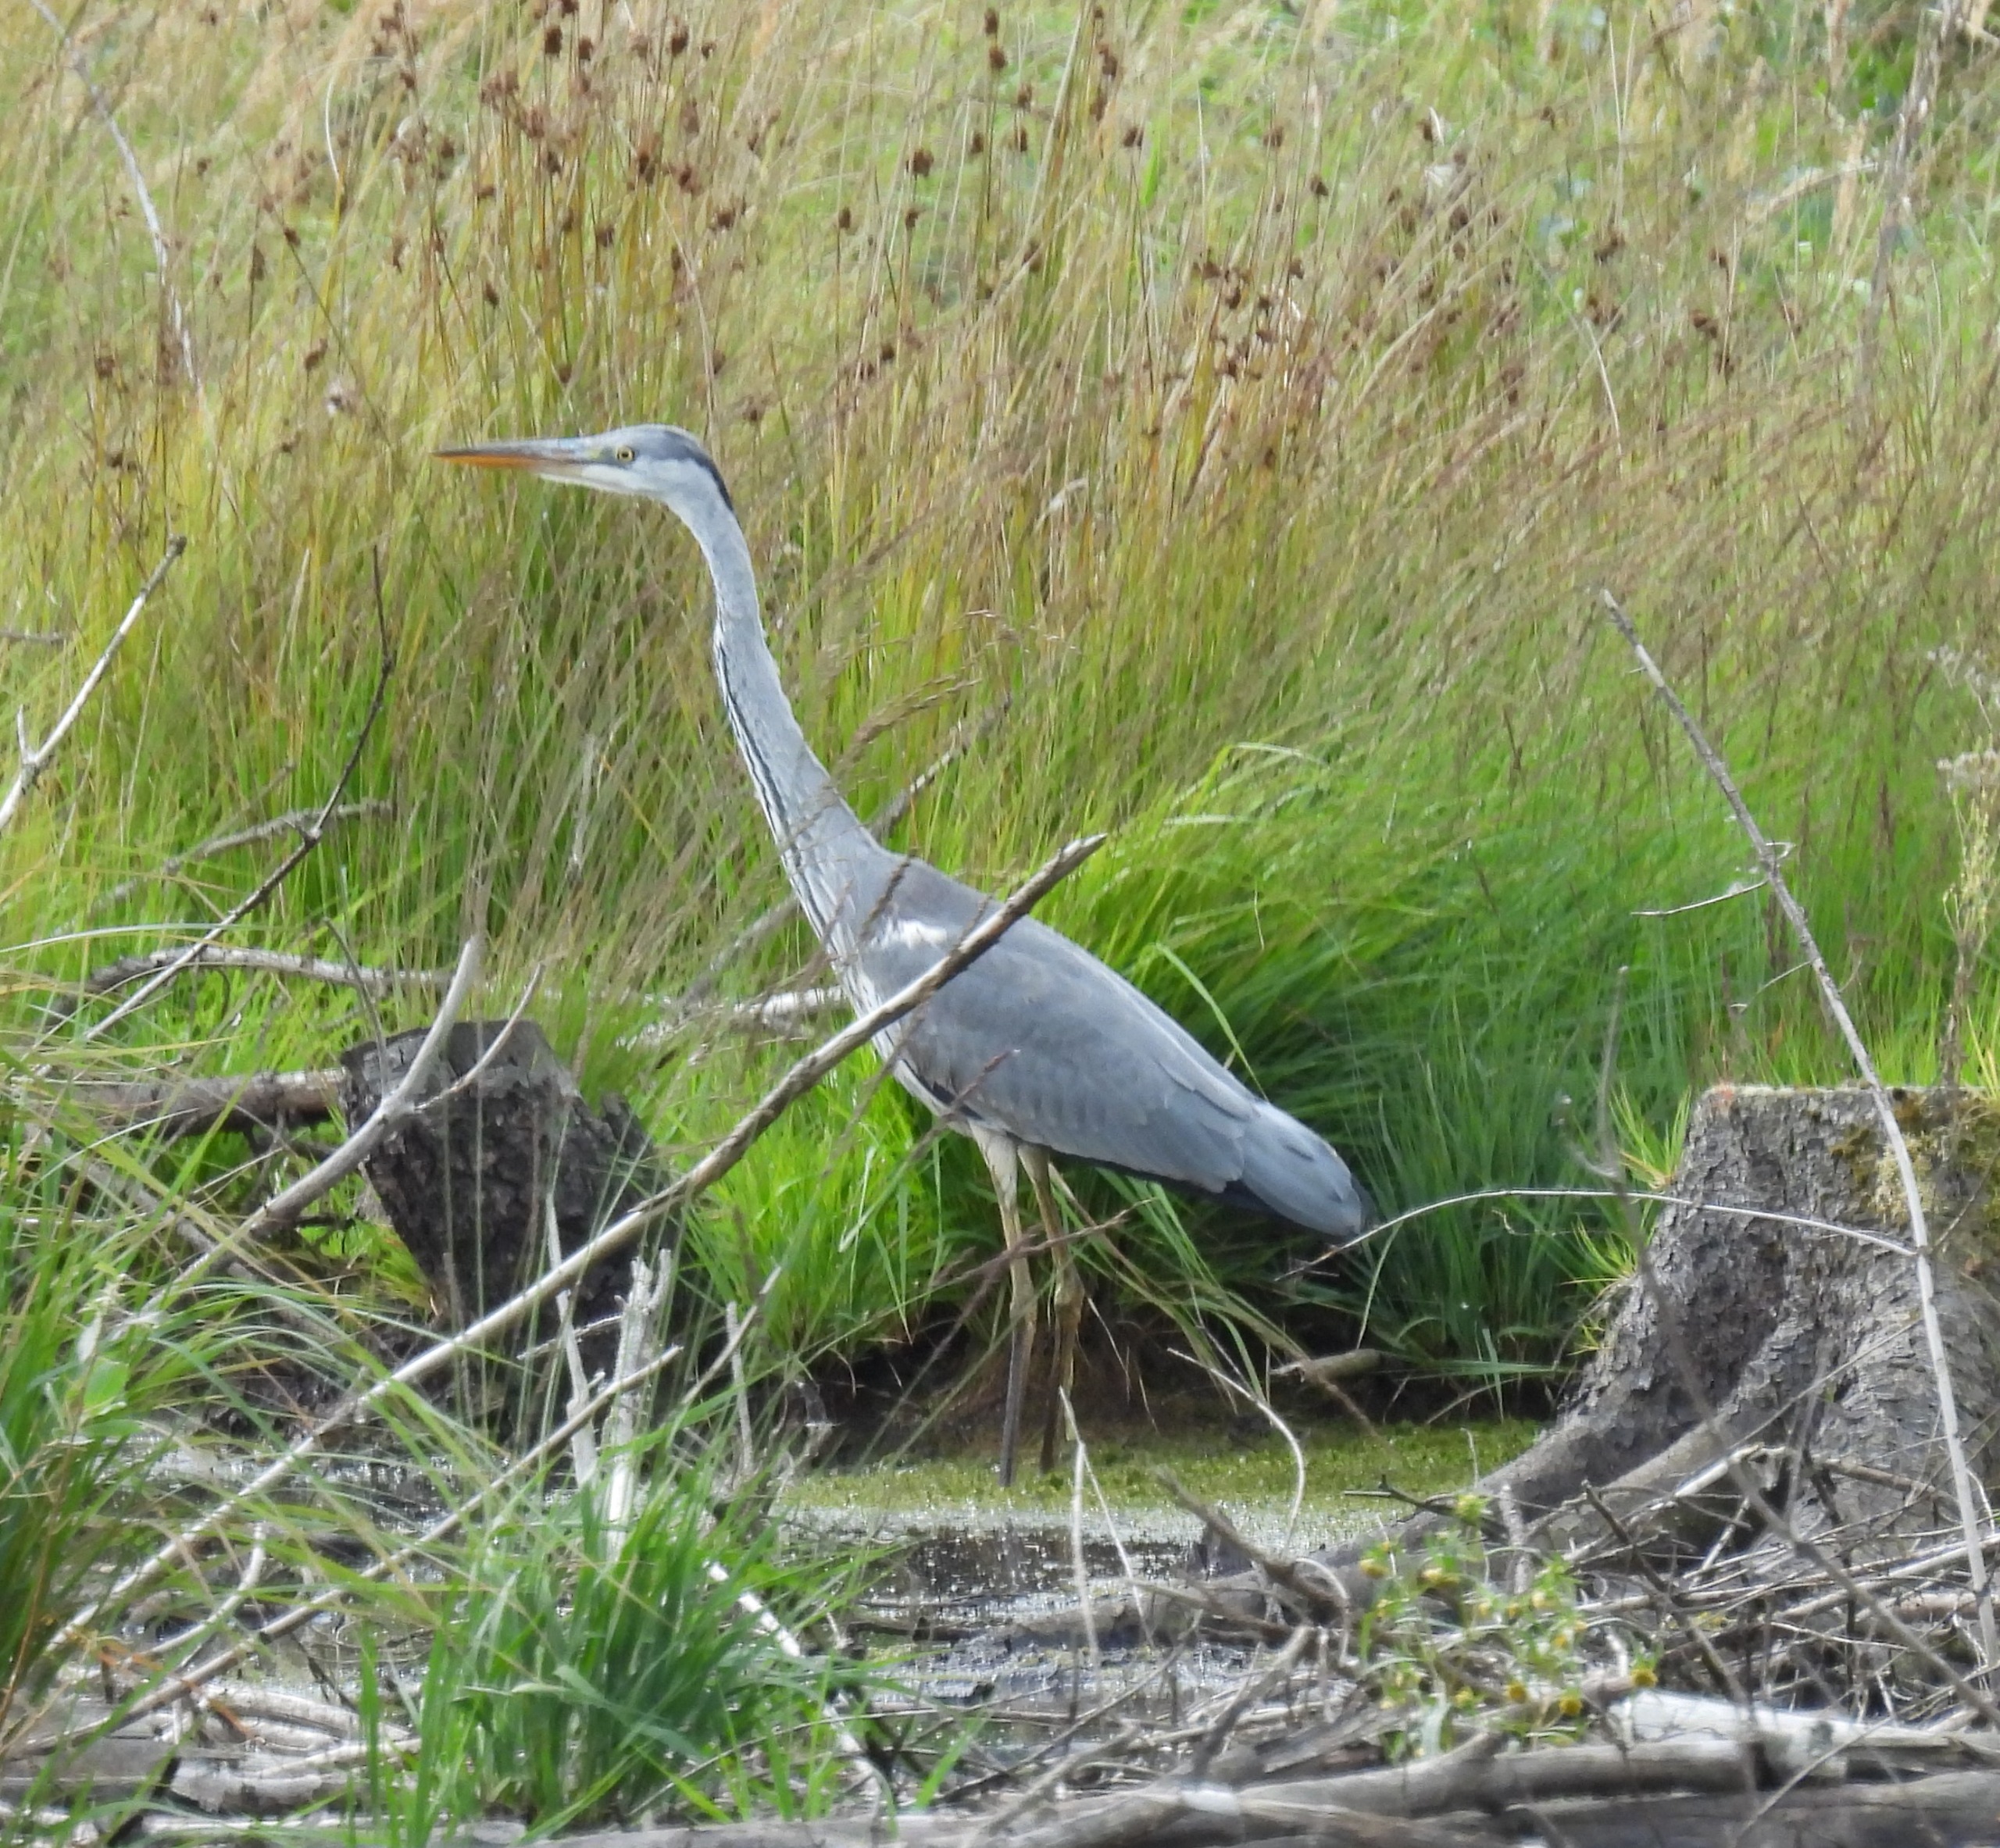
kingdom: Animalia
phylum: Chordata
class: Aves
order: Pelecaniformes
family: Ardeidae
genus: Ardea
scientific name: Ardea cinerea
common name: Fiskehejre
